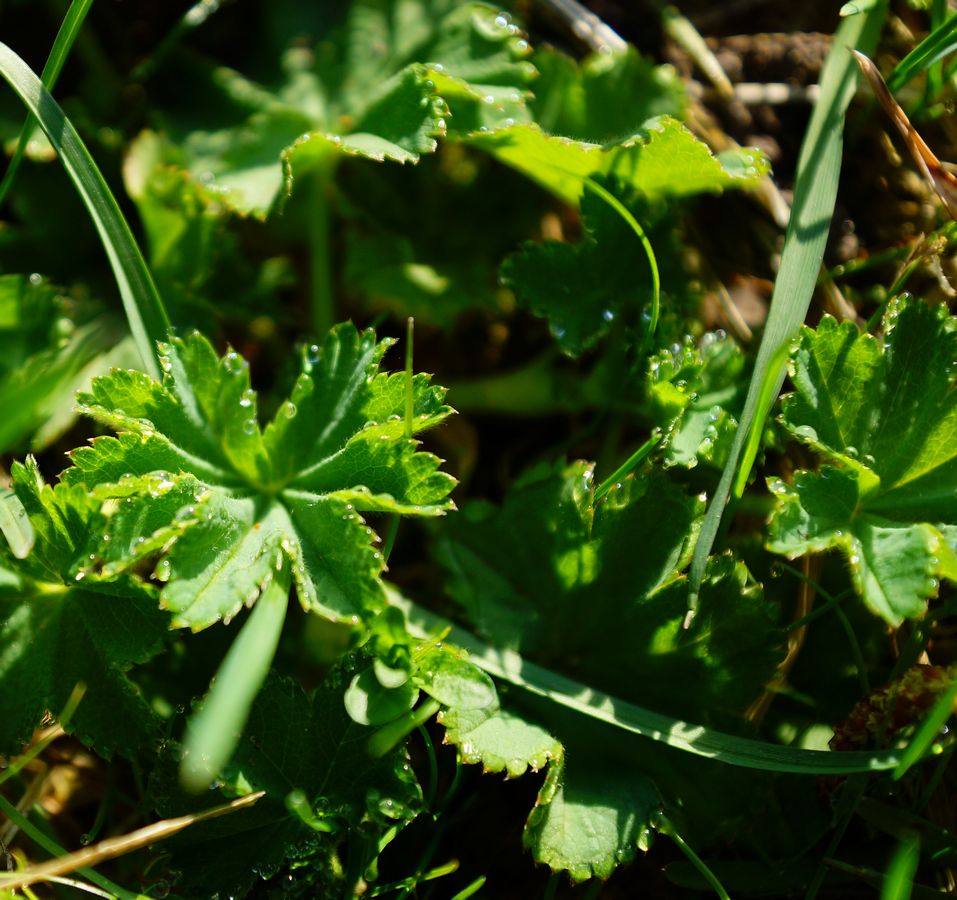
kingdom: Plantae
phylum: Tracheophyta
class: Magnoliopsida
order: Rosales
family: Rosaceae
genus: Alchemilla
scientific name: Alchemilla
